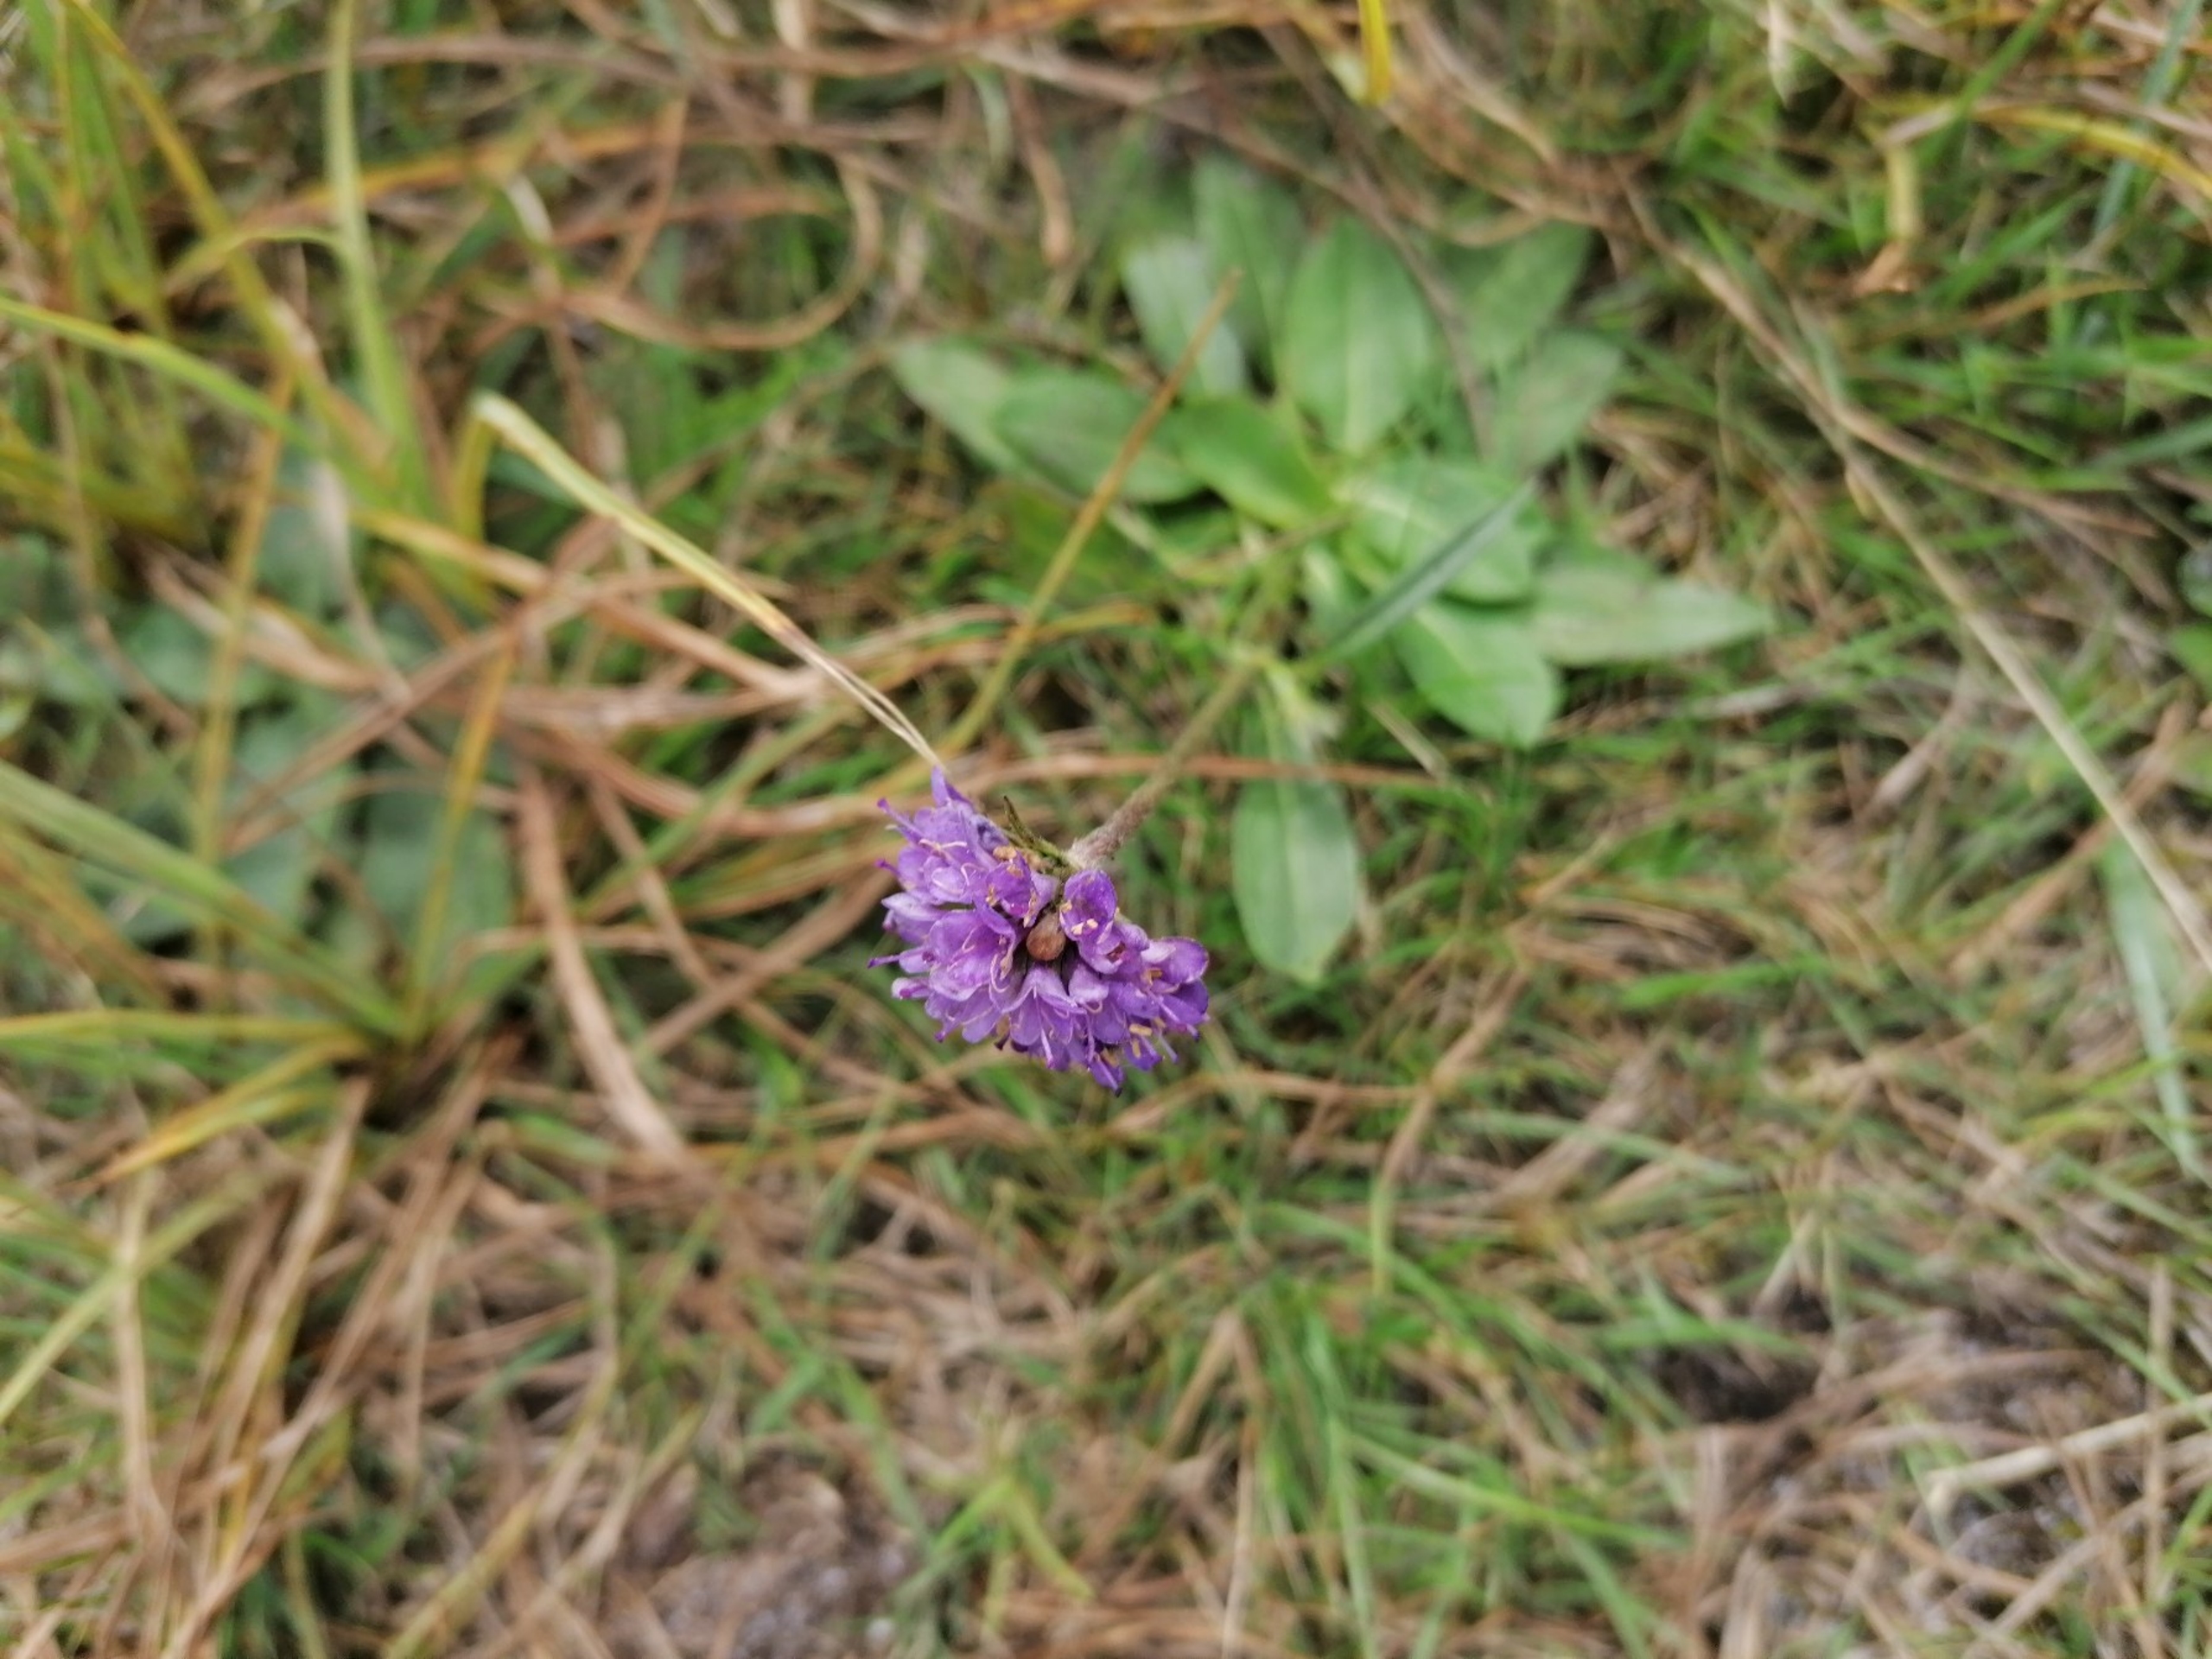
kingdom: Plantae
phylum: Tracheophyta
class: Magnoliopsida
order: Dipsacales
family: Caprifoliaceae
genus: Succisa
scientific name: Succisa pratensis
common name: Djævelsbid
